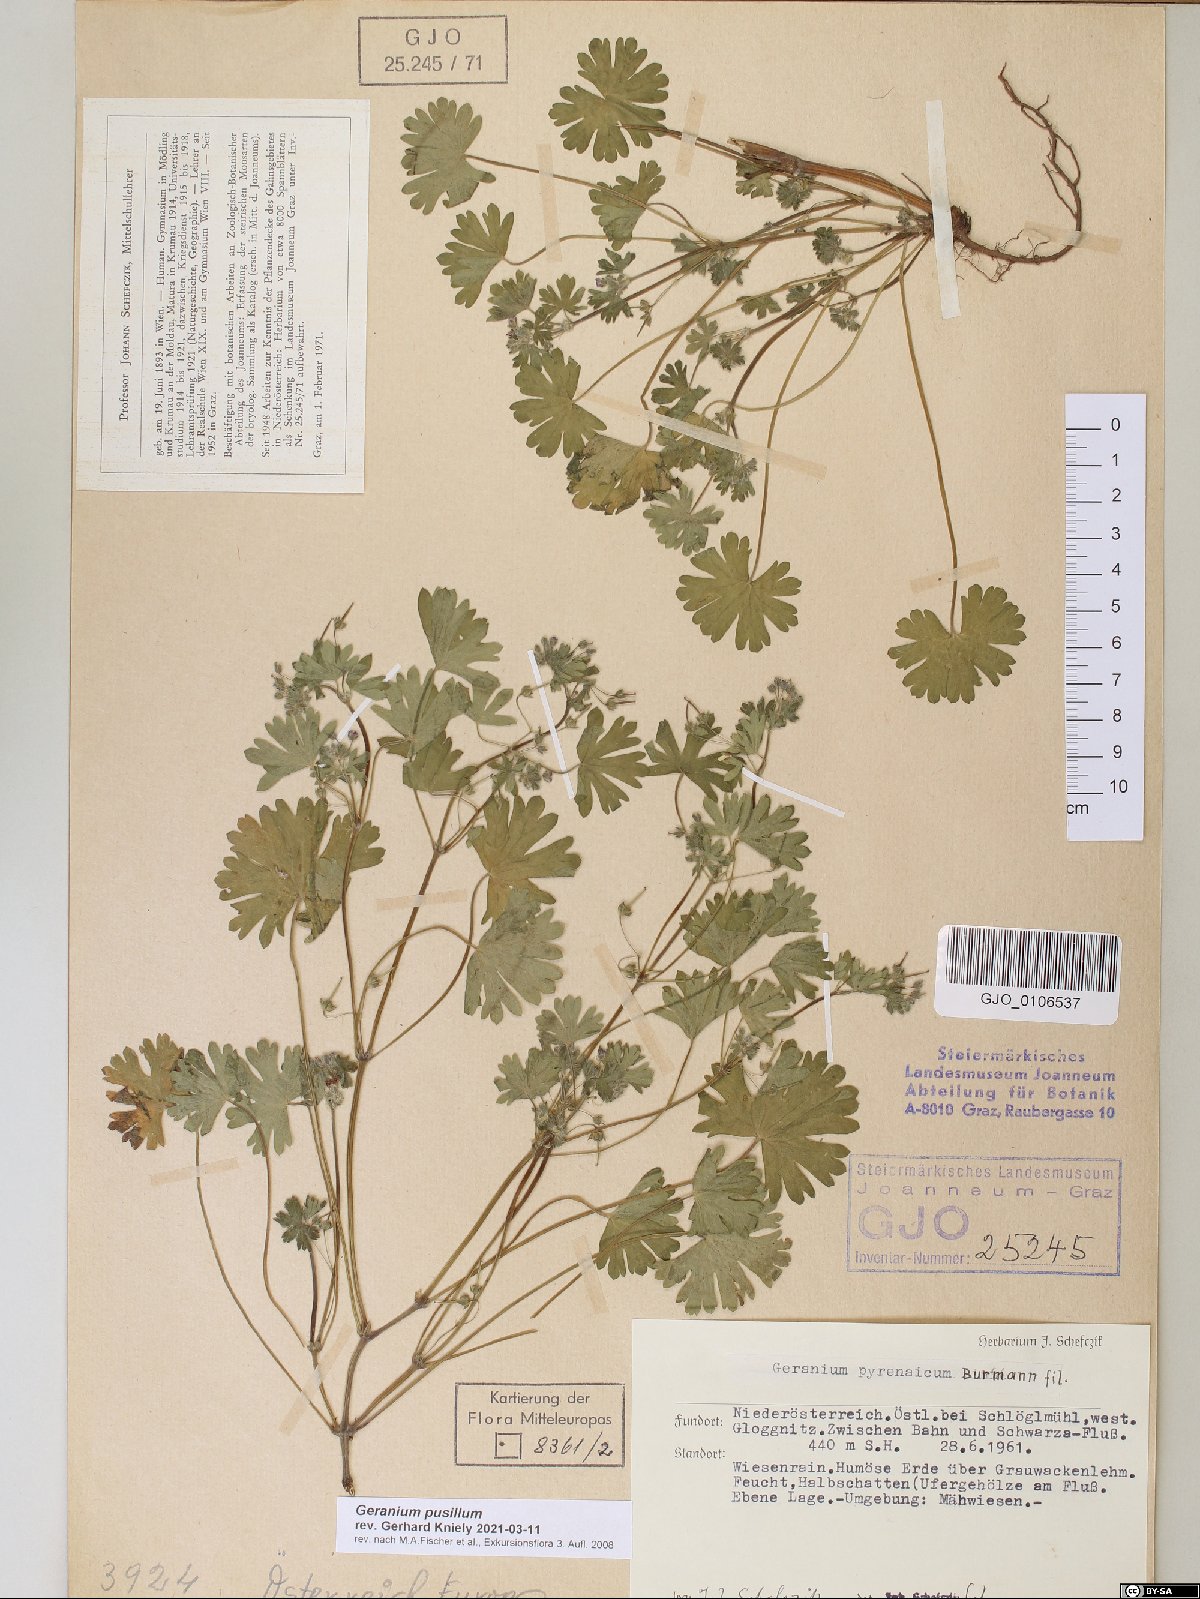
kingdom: Plantae
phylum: Tracheophyta
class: Magnoliopsida
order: Geraniales
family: Geraniaceae
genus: Geranium
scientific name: Geranium pusillum
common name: Small geranium
